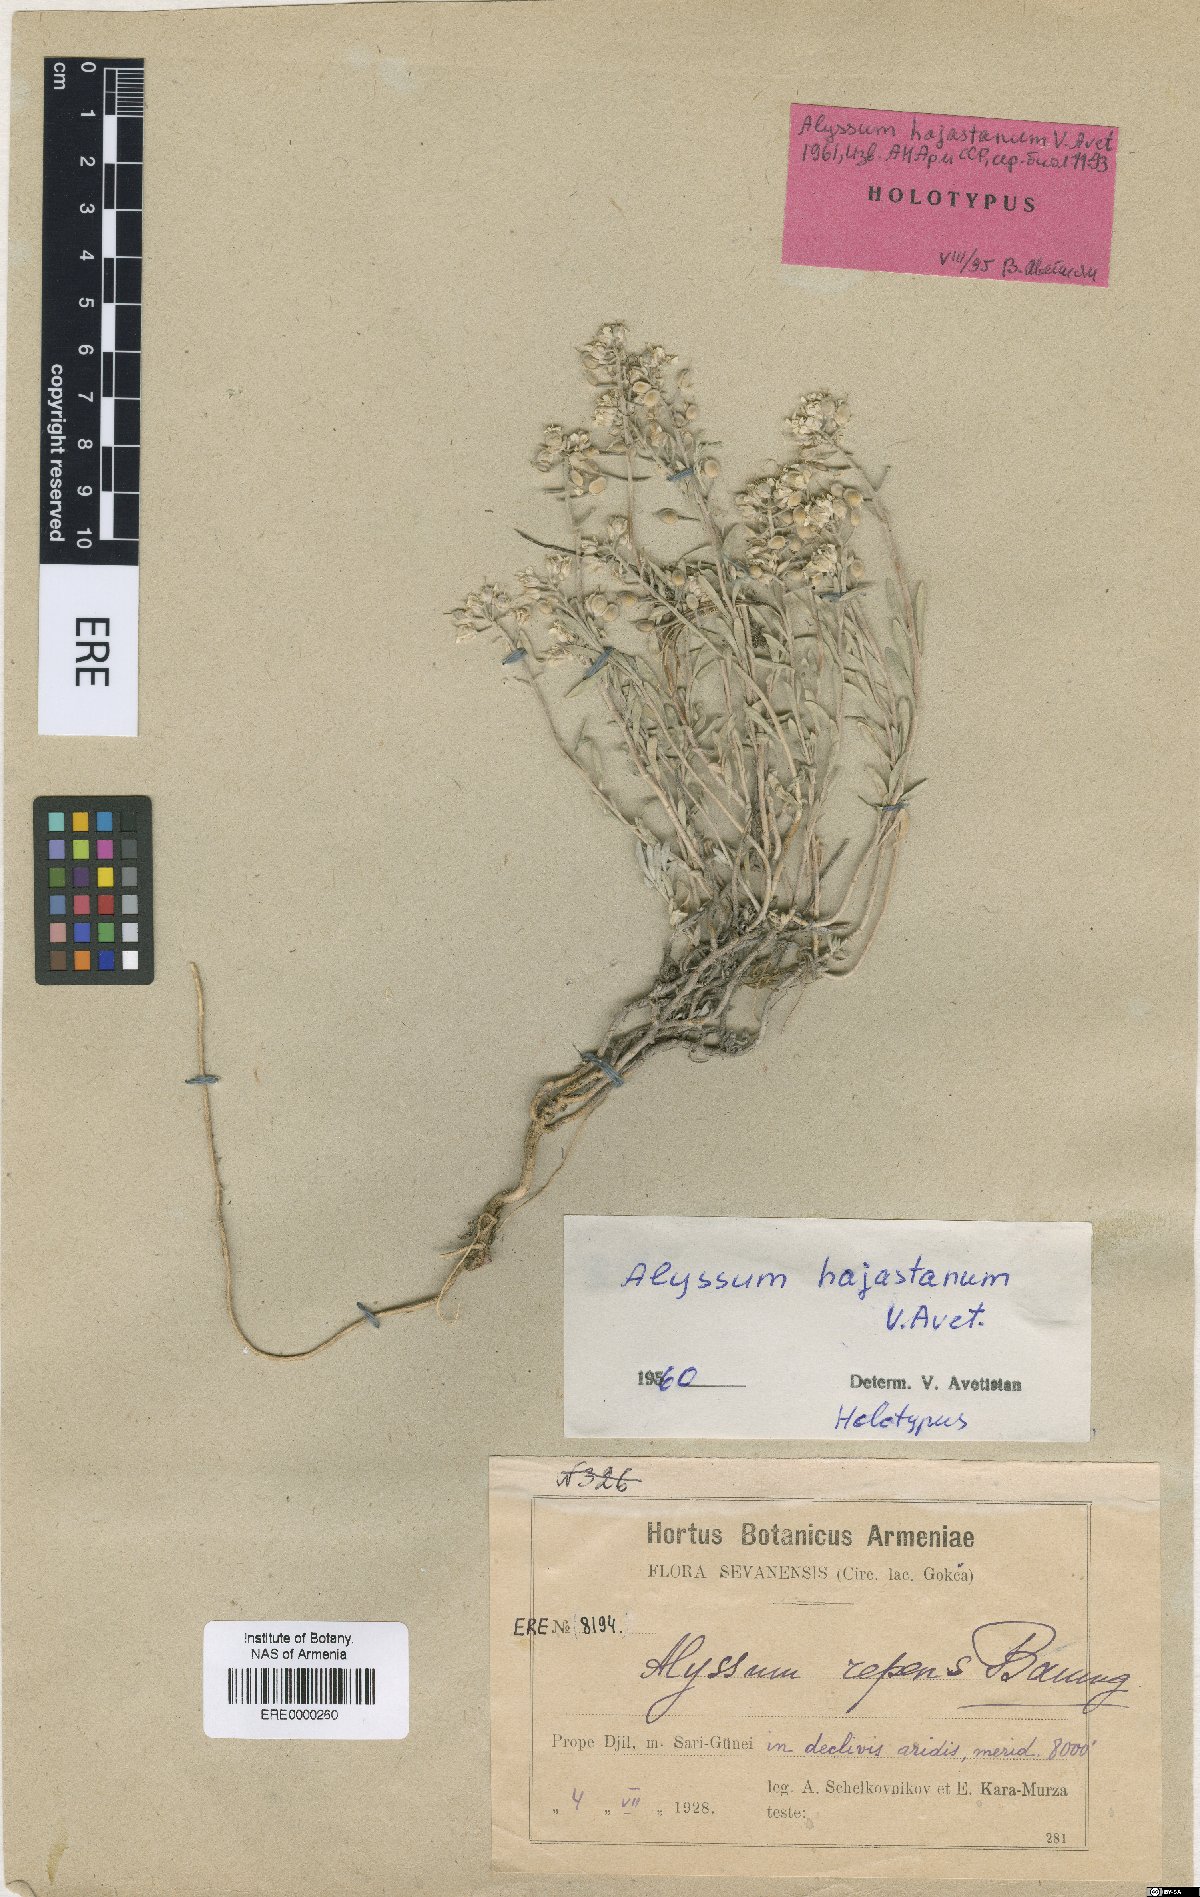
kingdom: Plantae
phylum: Tracheophyta
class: Magnoliopsida
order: Brassicales
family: Brassicaceae
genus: Alyssum
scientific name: Alyssum hajastanum
